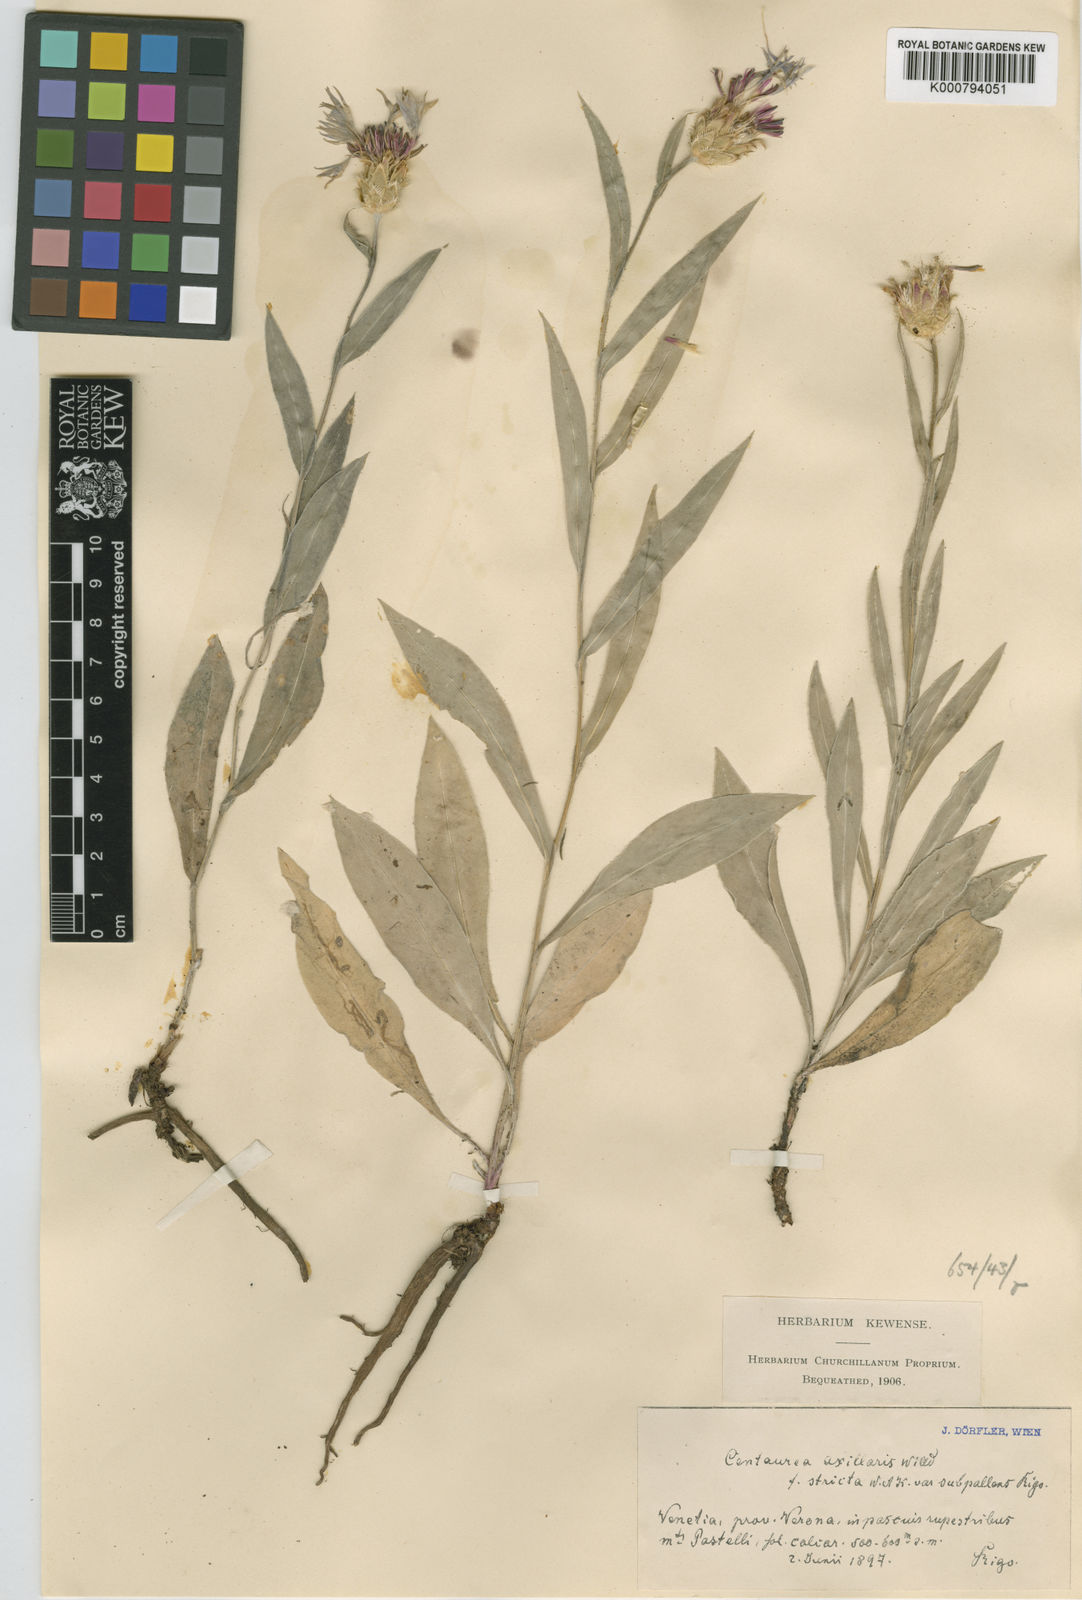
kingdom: Plantae
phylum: Tracheophyta
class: Magnoliopsida
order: Asterales
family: Asteraceae
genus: Centaurea
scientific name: Centaurea triumfettii
